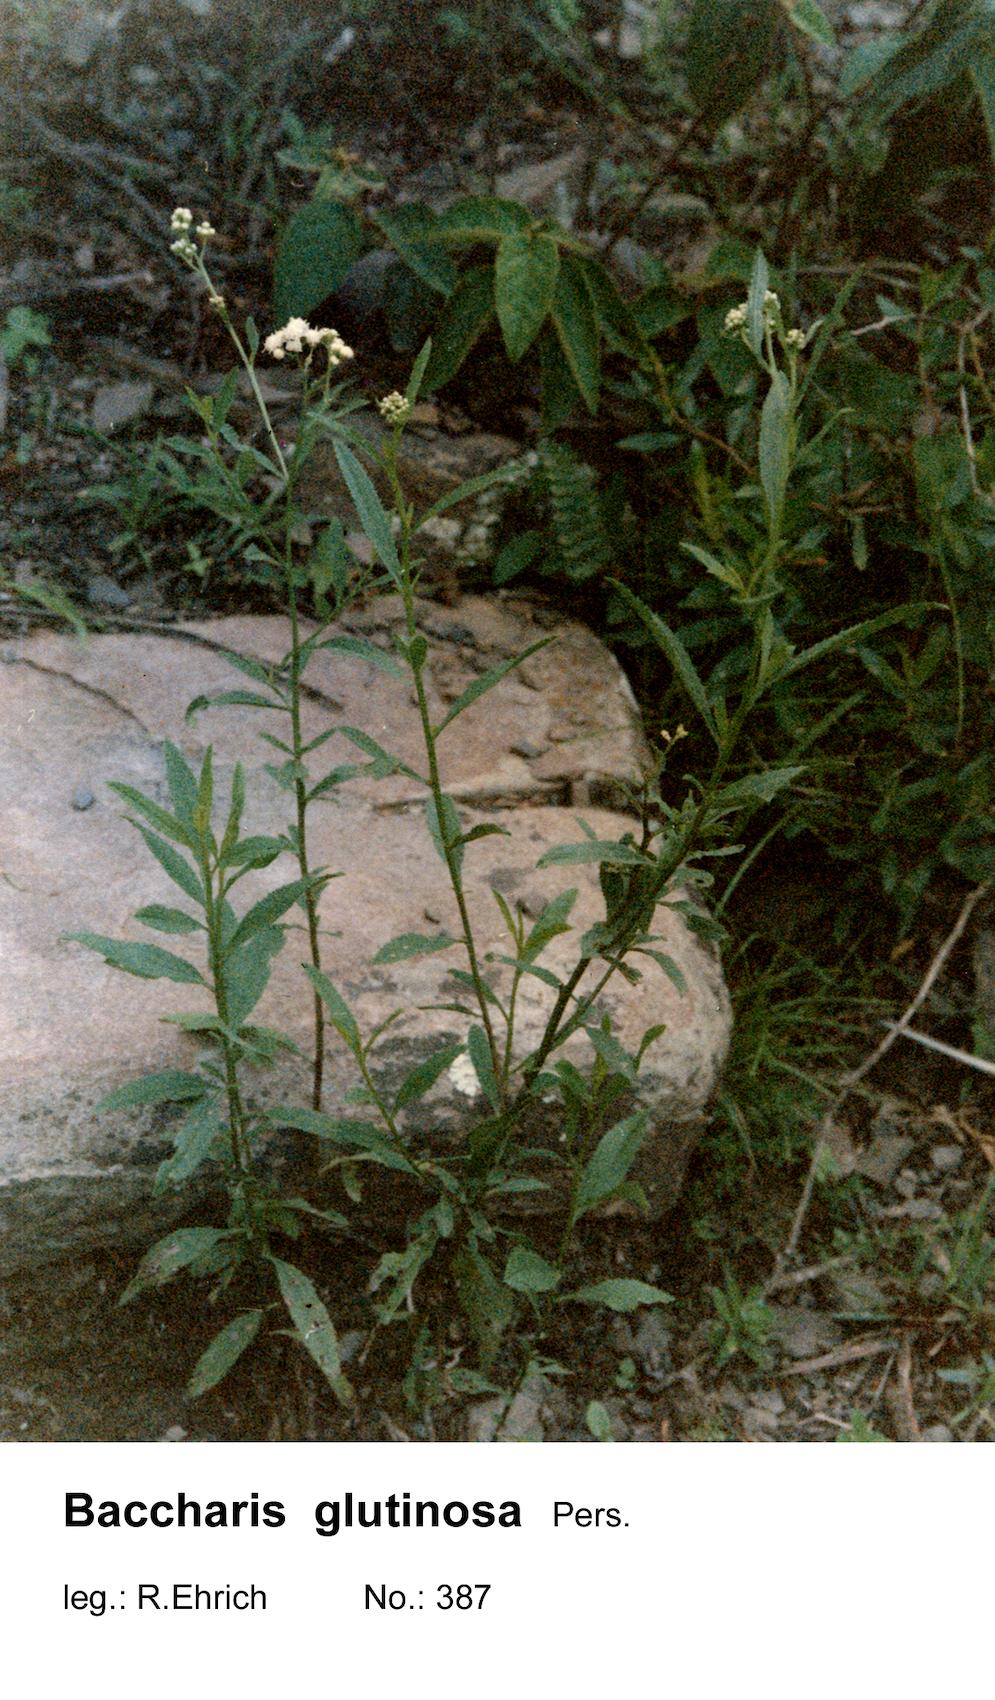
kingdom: Plantae
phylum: Tracheophyta
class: Magnoliopsida
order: Asterales
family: Asteraceae
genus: Baccharis
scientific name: Baccharis glutinosa
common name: Saltmarsh baccharis
